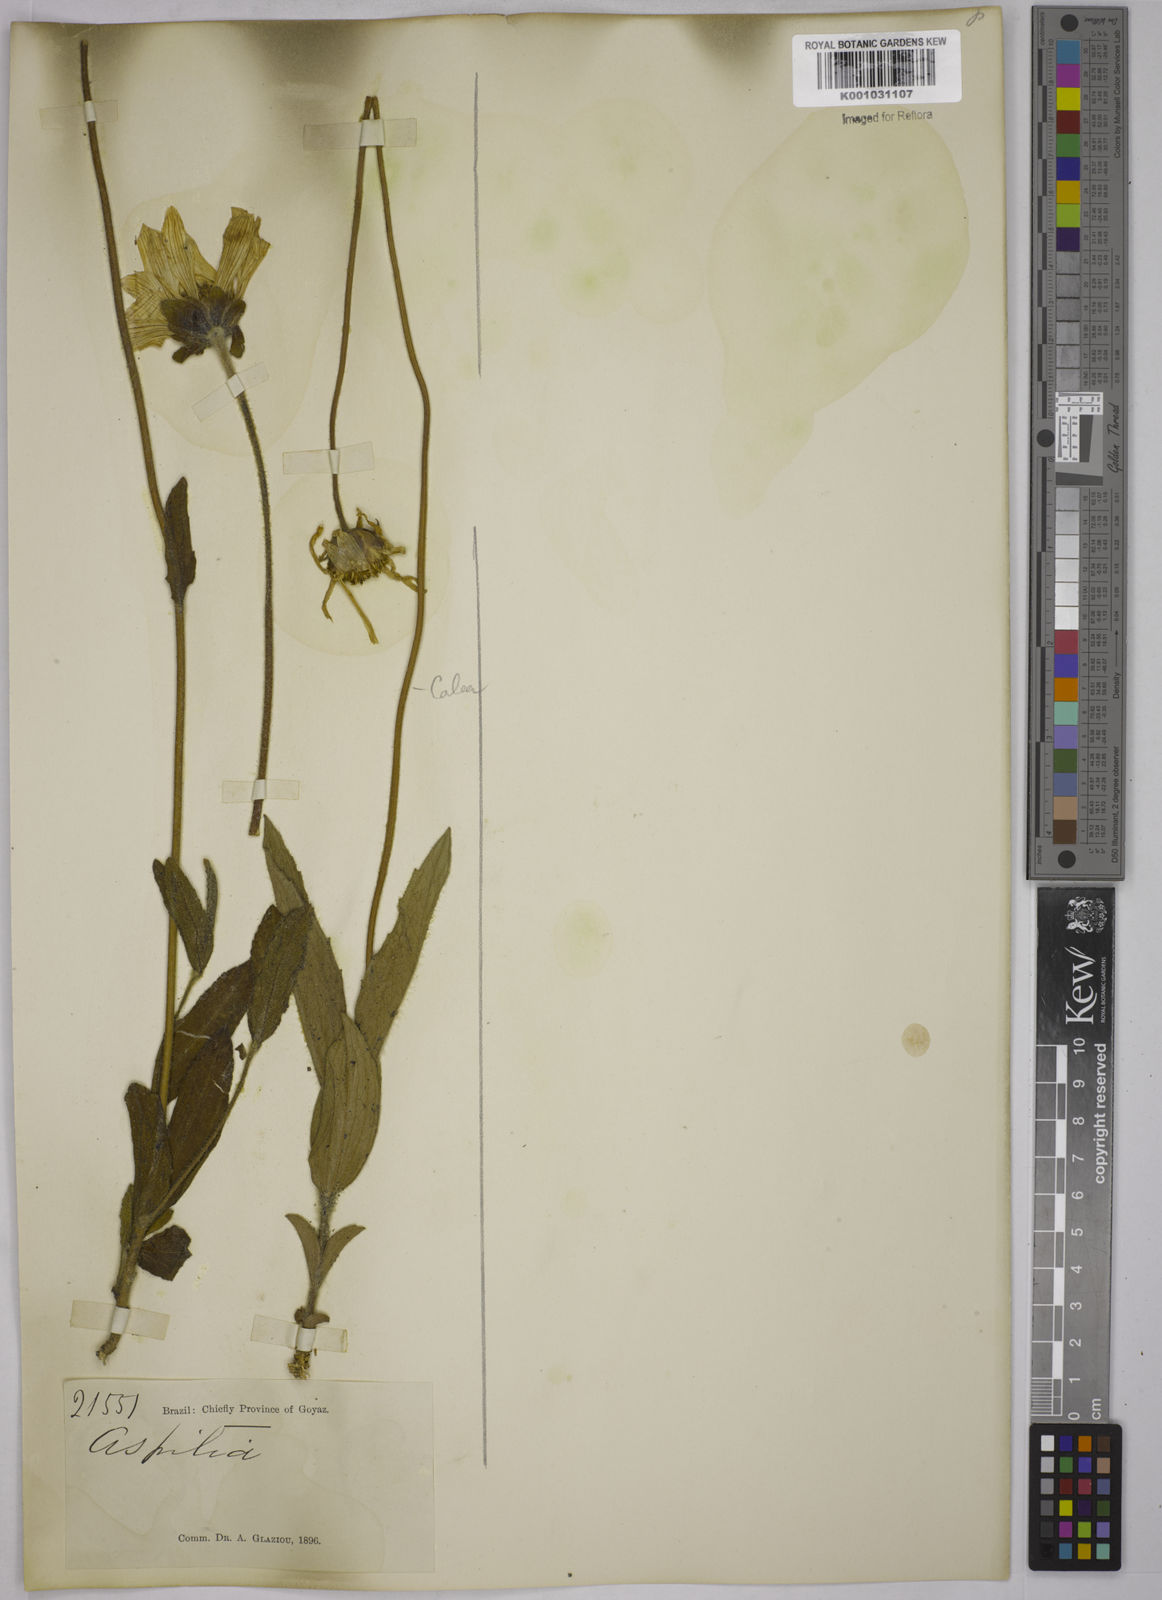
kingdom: Plantae
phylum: Tracheophyta
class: Magnoliopsida
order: Asterales
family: Asteraceae
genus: Aspilia
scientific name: Aspilia
